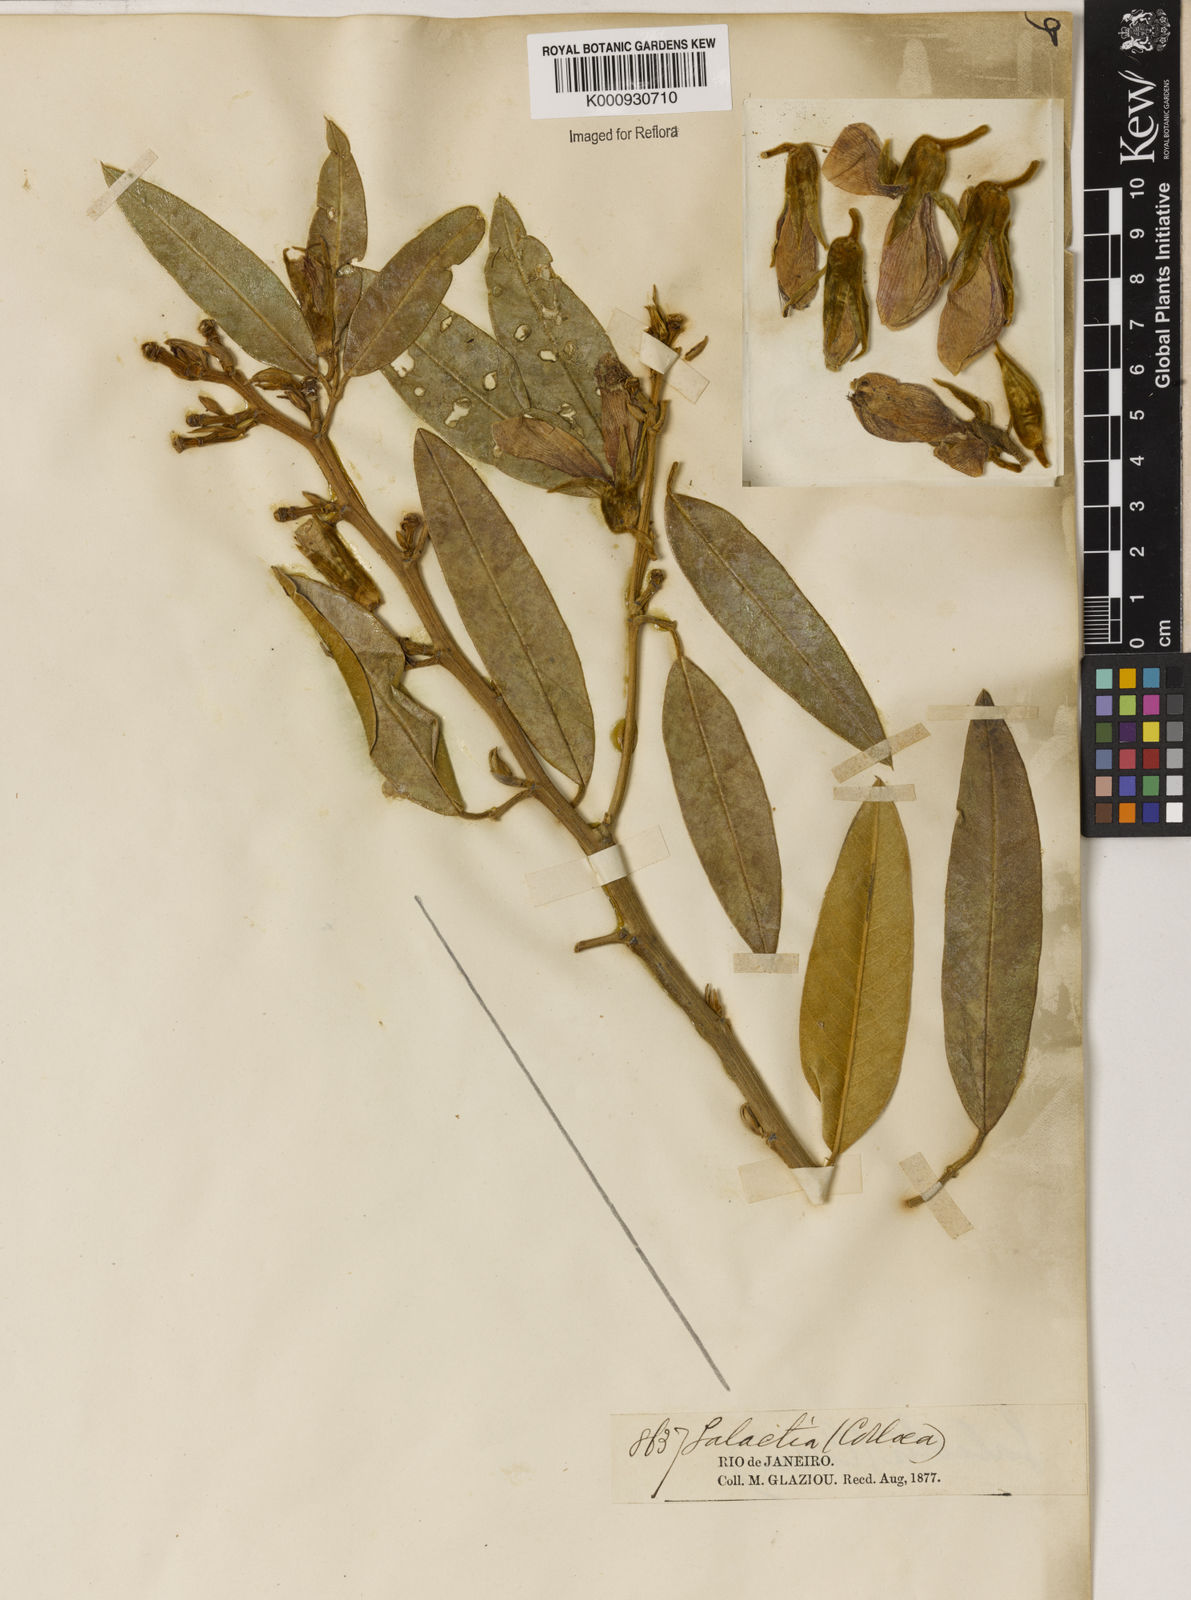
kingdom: Plantae
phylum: Tracheophyta
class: Magnoliopsida
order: Lamiales
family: Lamiaceae
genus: Coleus
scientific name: Coleus barbatus
